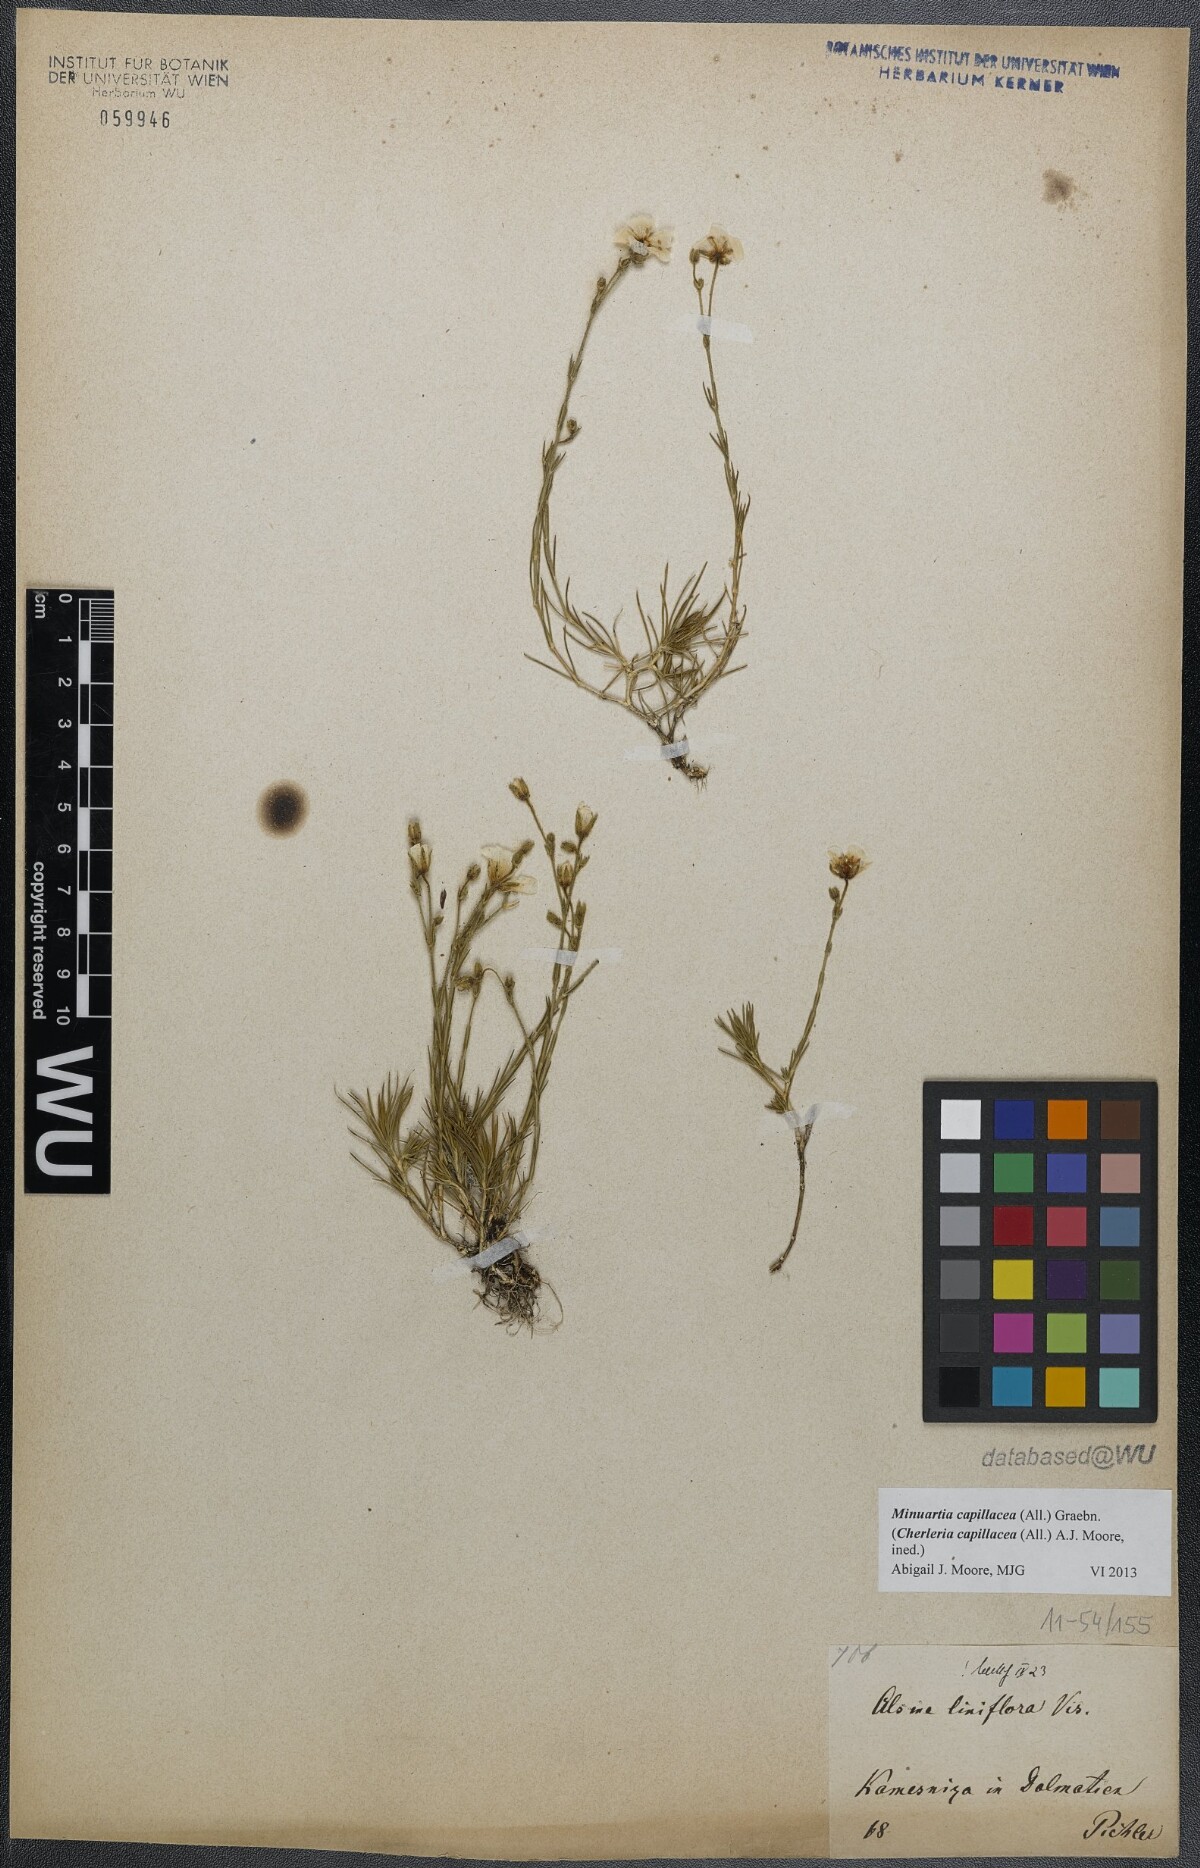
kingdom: Plantae
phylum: Tracheophyta
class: Magnoliopsida
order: Caryophyllales
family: Caryophyllaceae
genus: Cherleria
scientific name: Cherleria capillacea
